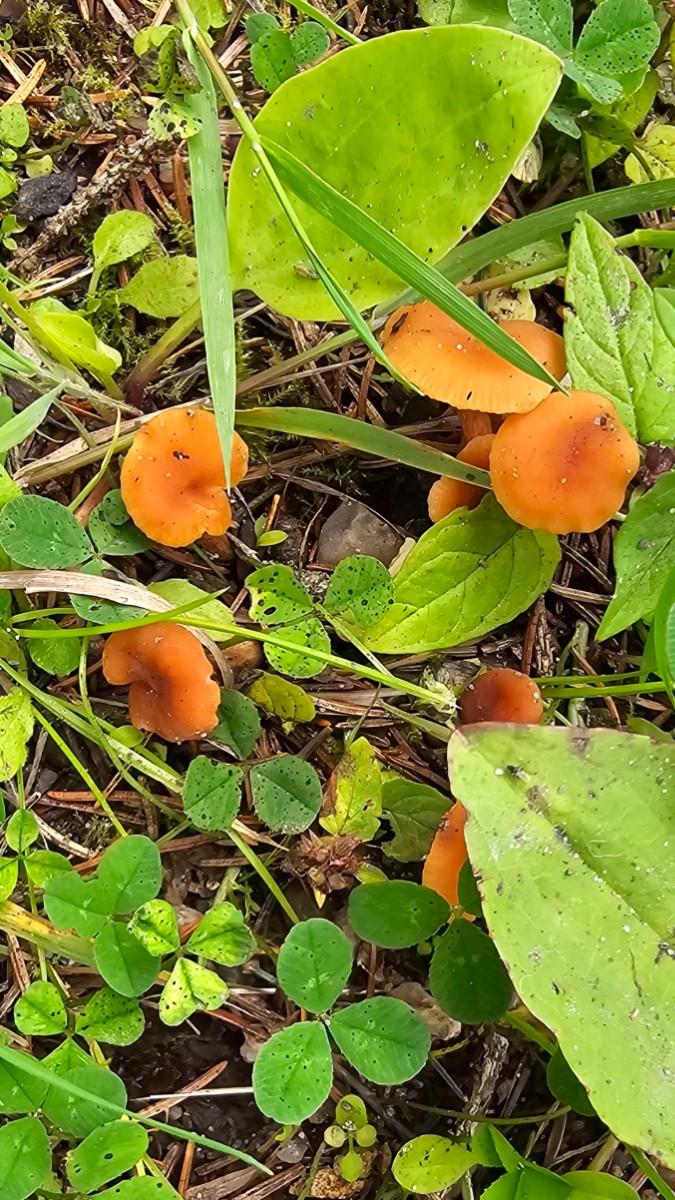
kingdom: Fungi
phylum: Basidiomycota
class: Agaricomycetes
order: Agaricales
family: Hydnangiaceae
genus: Laccaria
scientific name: Laccaria laccata
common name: rød ametysthat
